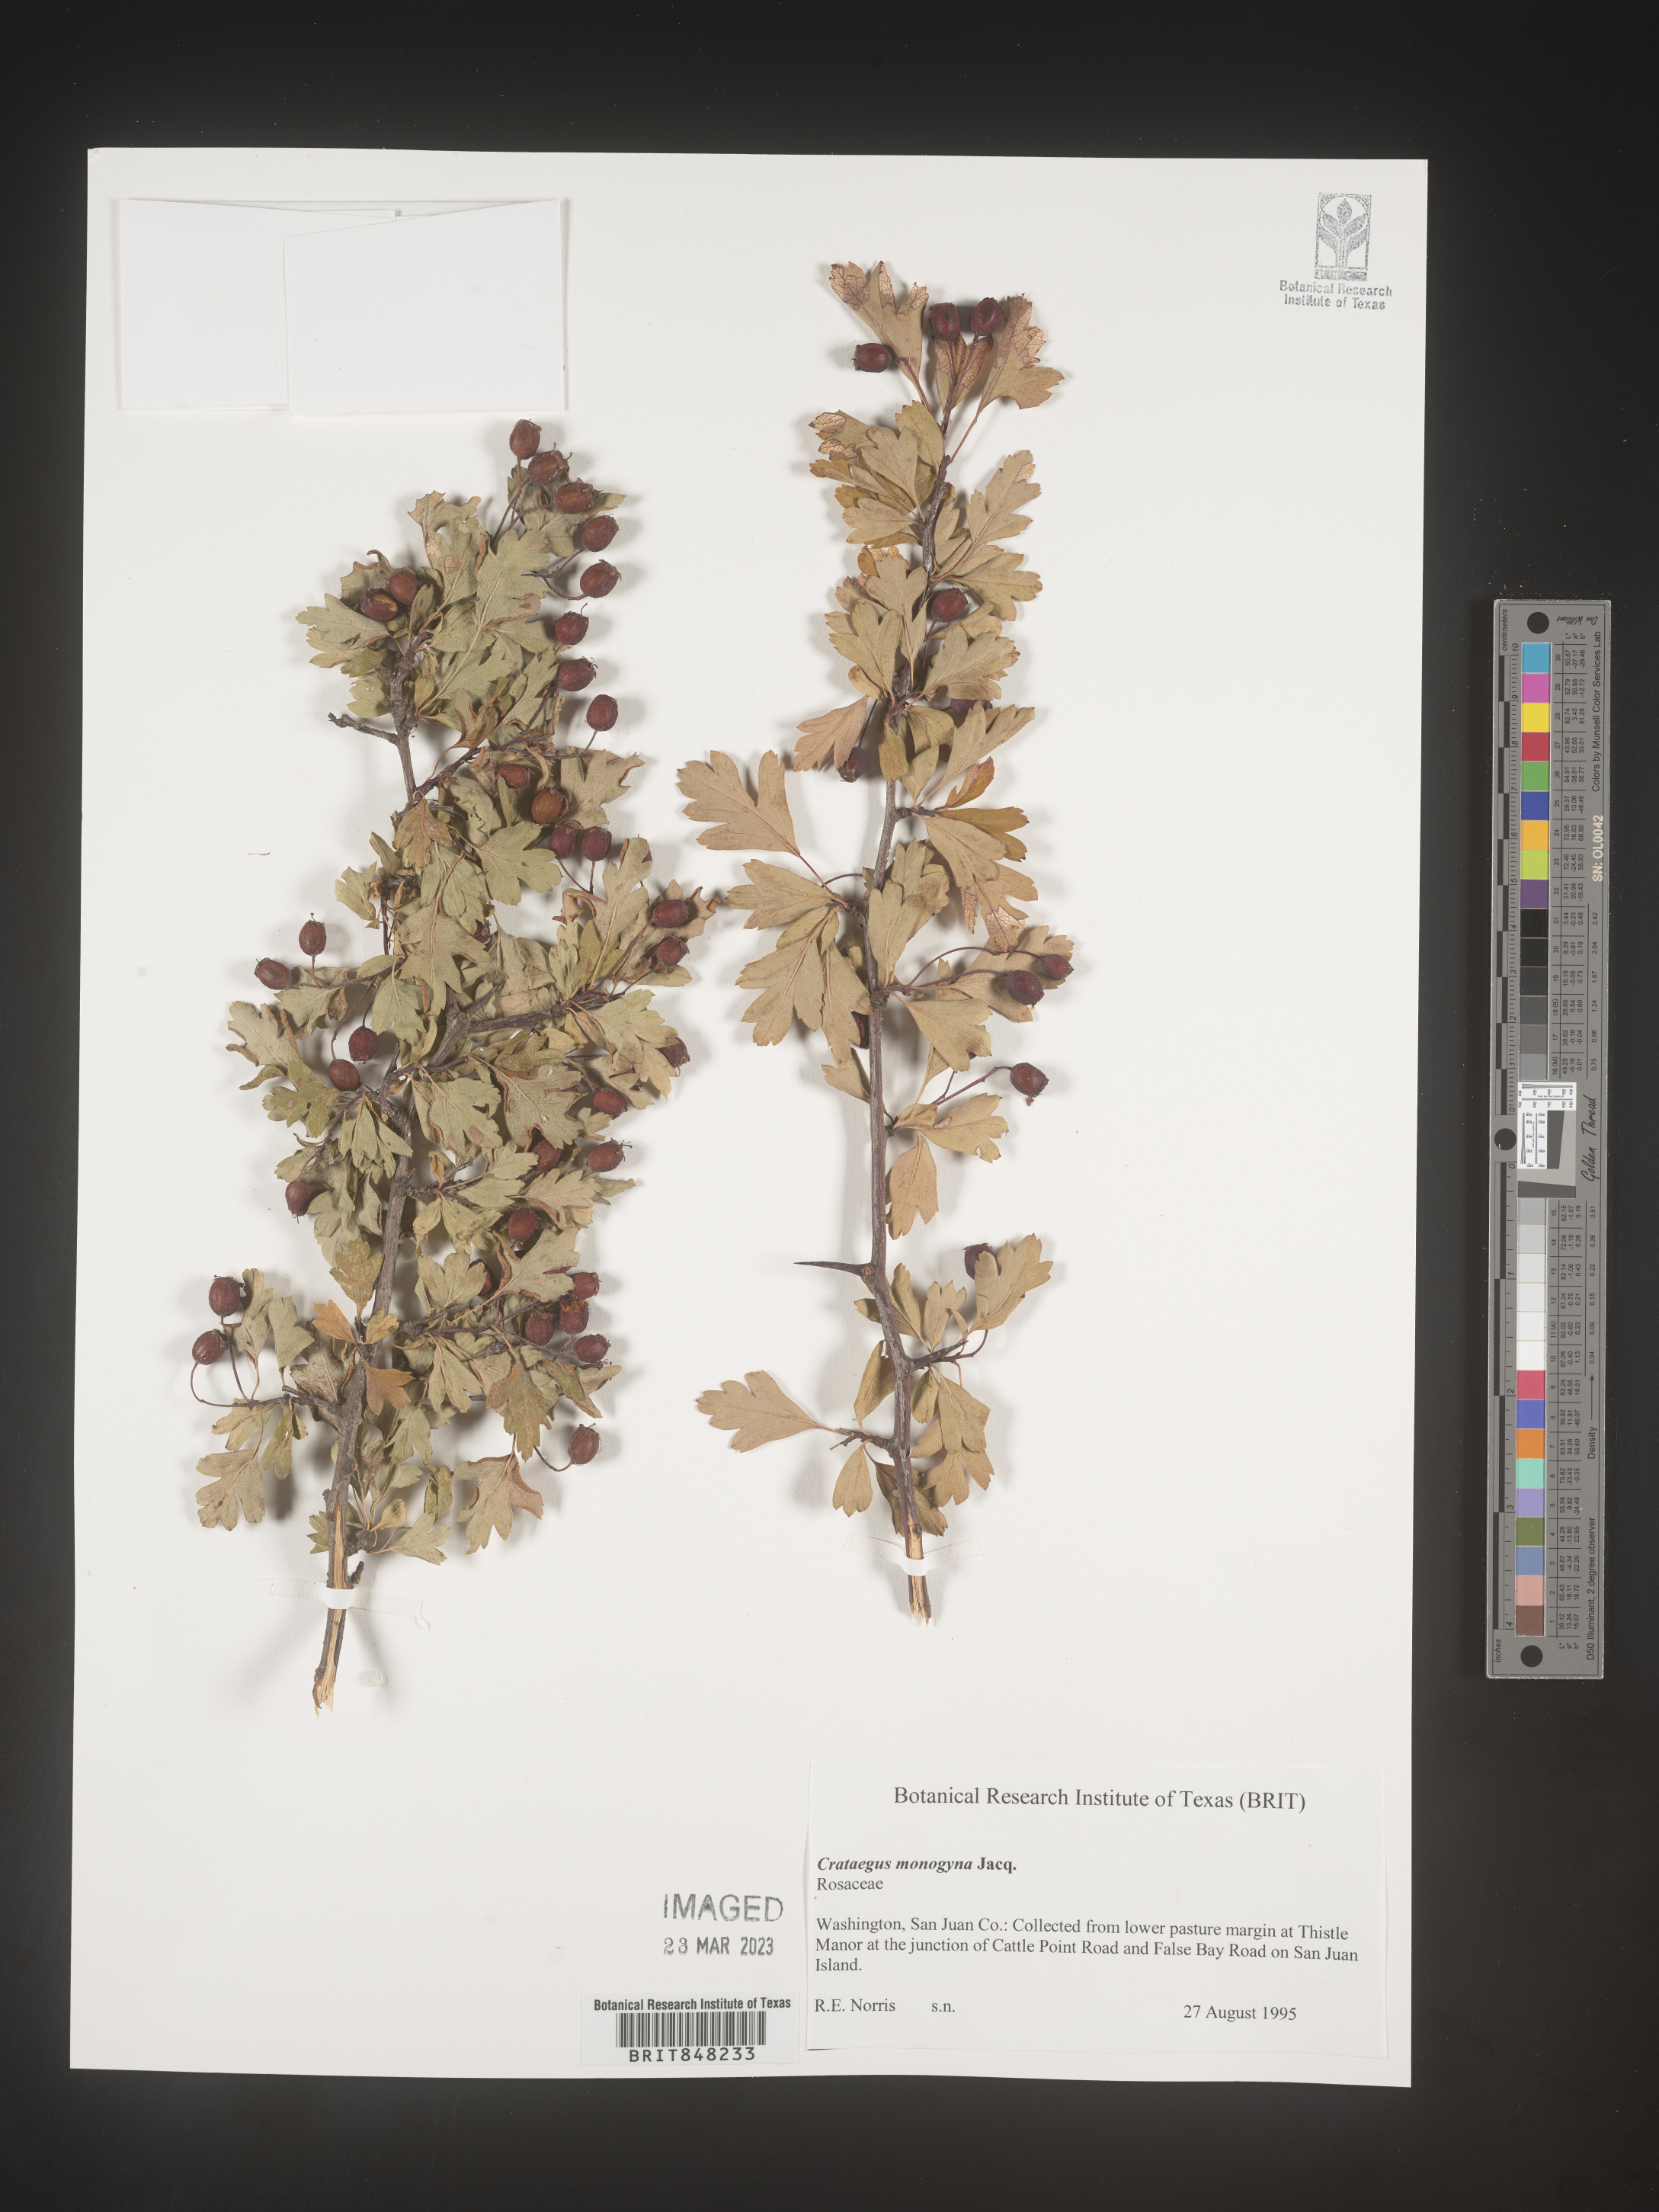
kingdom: Plantae
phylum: Tracheophyta
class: Magnoliopsida
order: Rosales
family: Rosaceae
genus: Crataegus
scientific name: Crataegus monogyna
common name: Hawthorn
